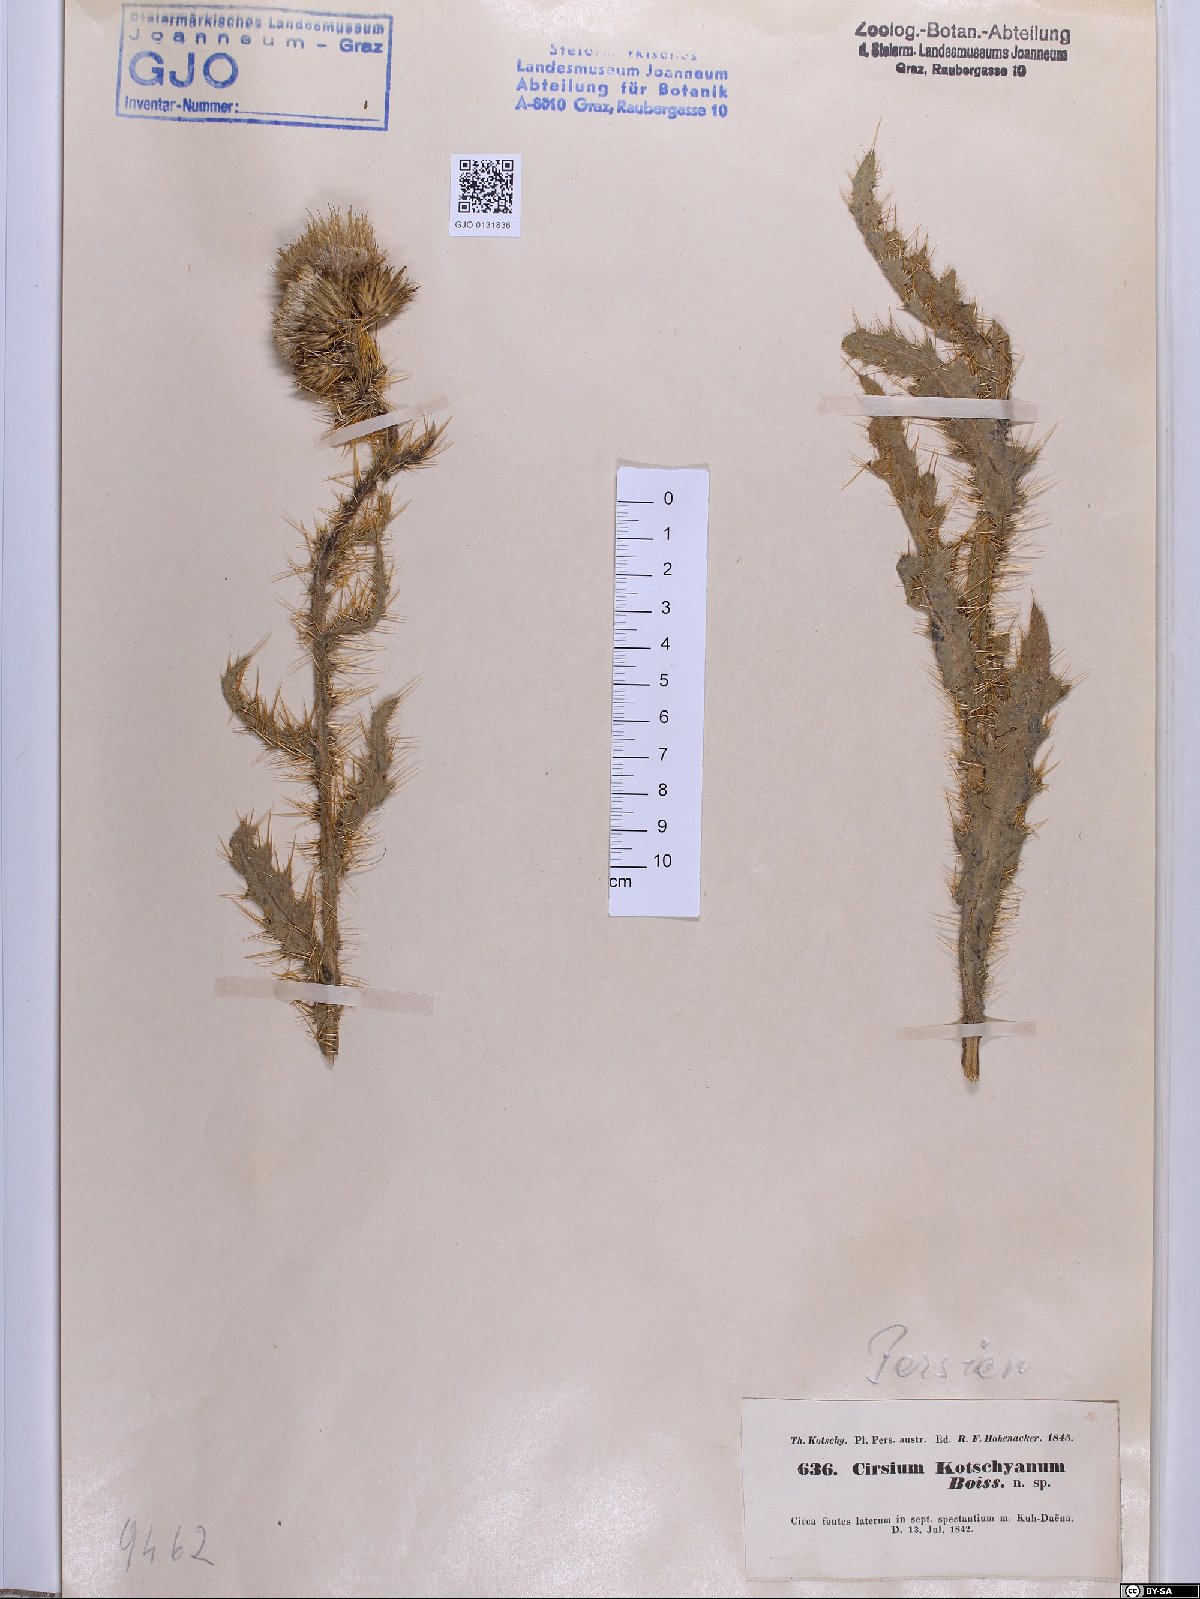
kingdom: Plantae
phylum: Tracheophyta
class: Magnoliopsida
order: Asterales
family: Asteraceae
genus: Cirsium
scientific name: Cirsium libanoticum
